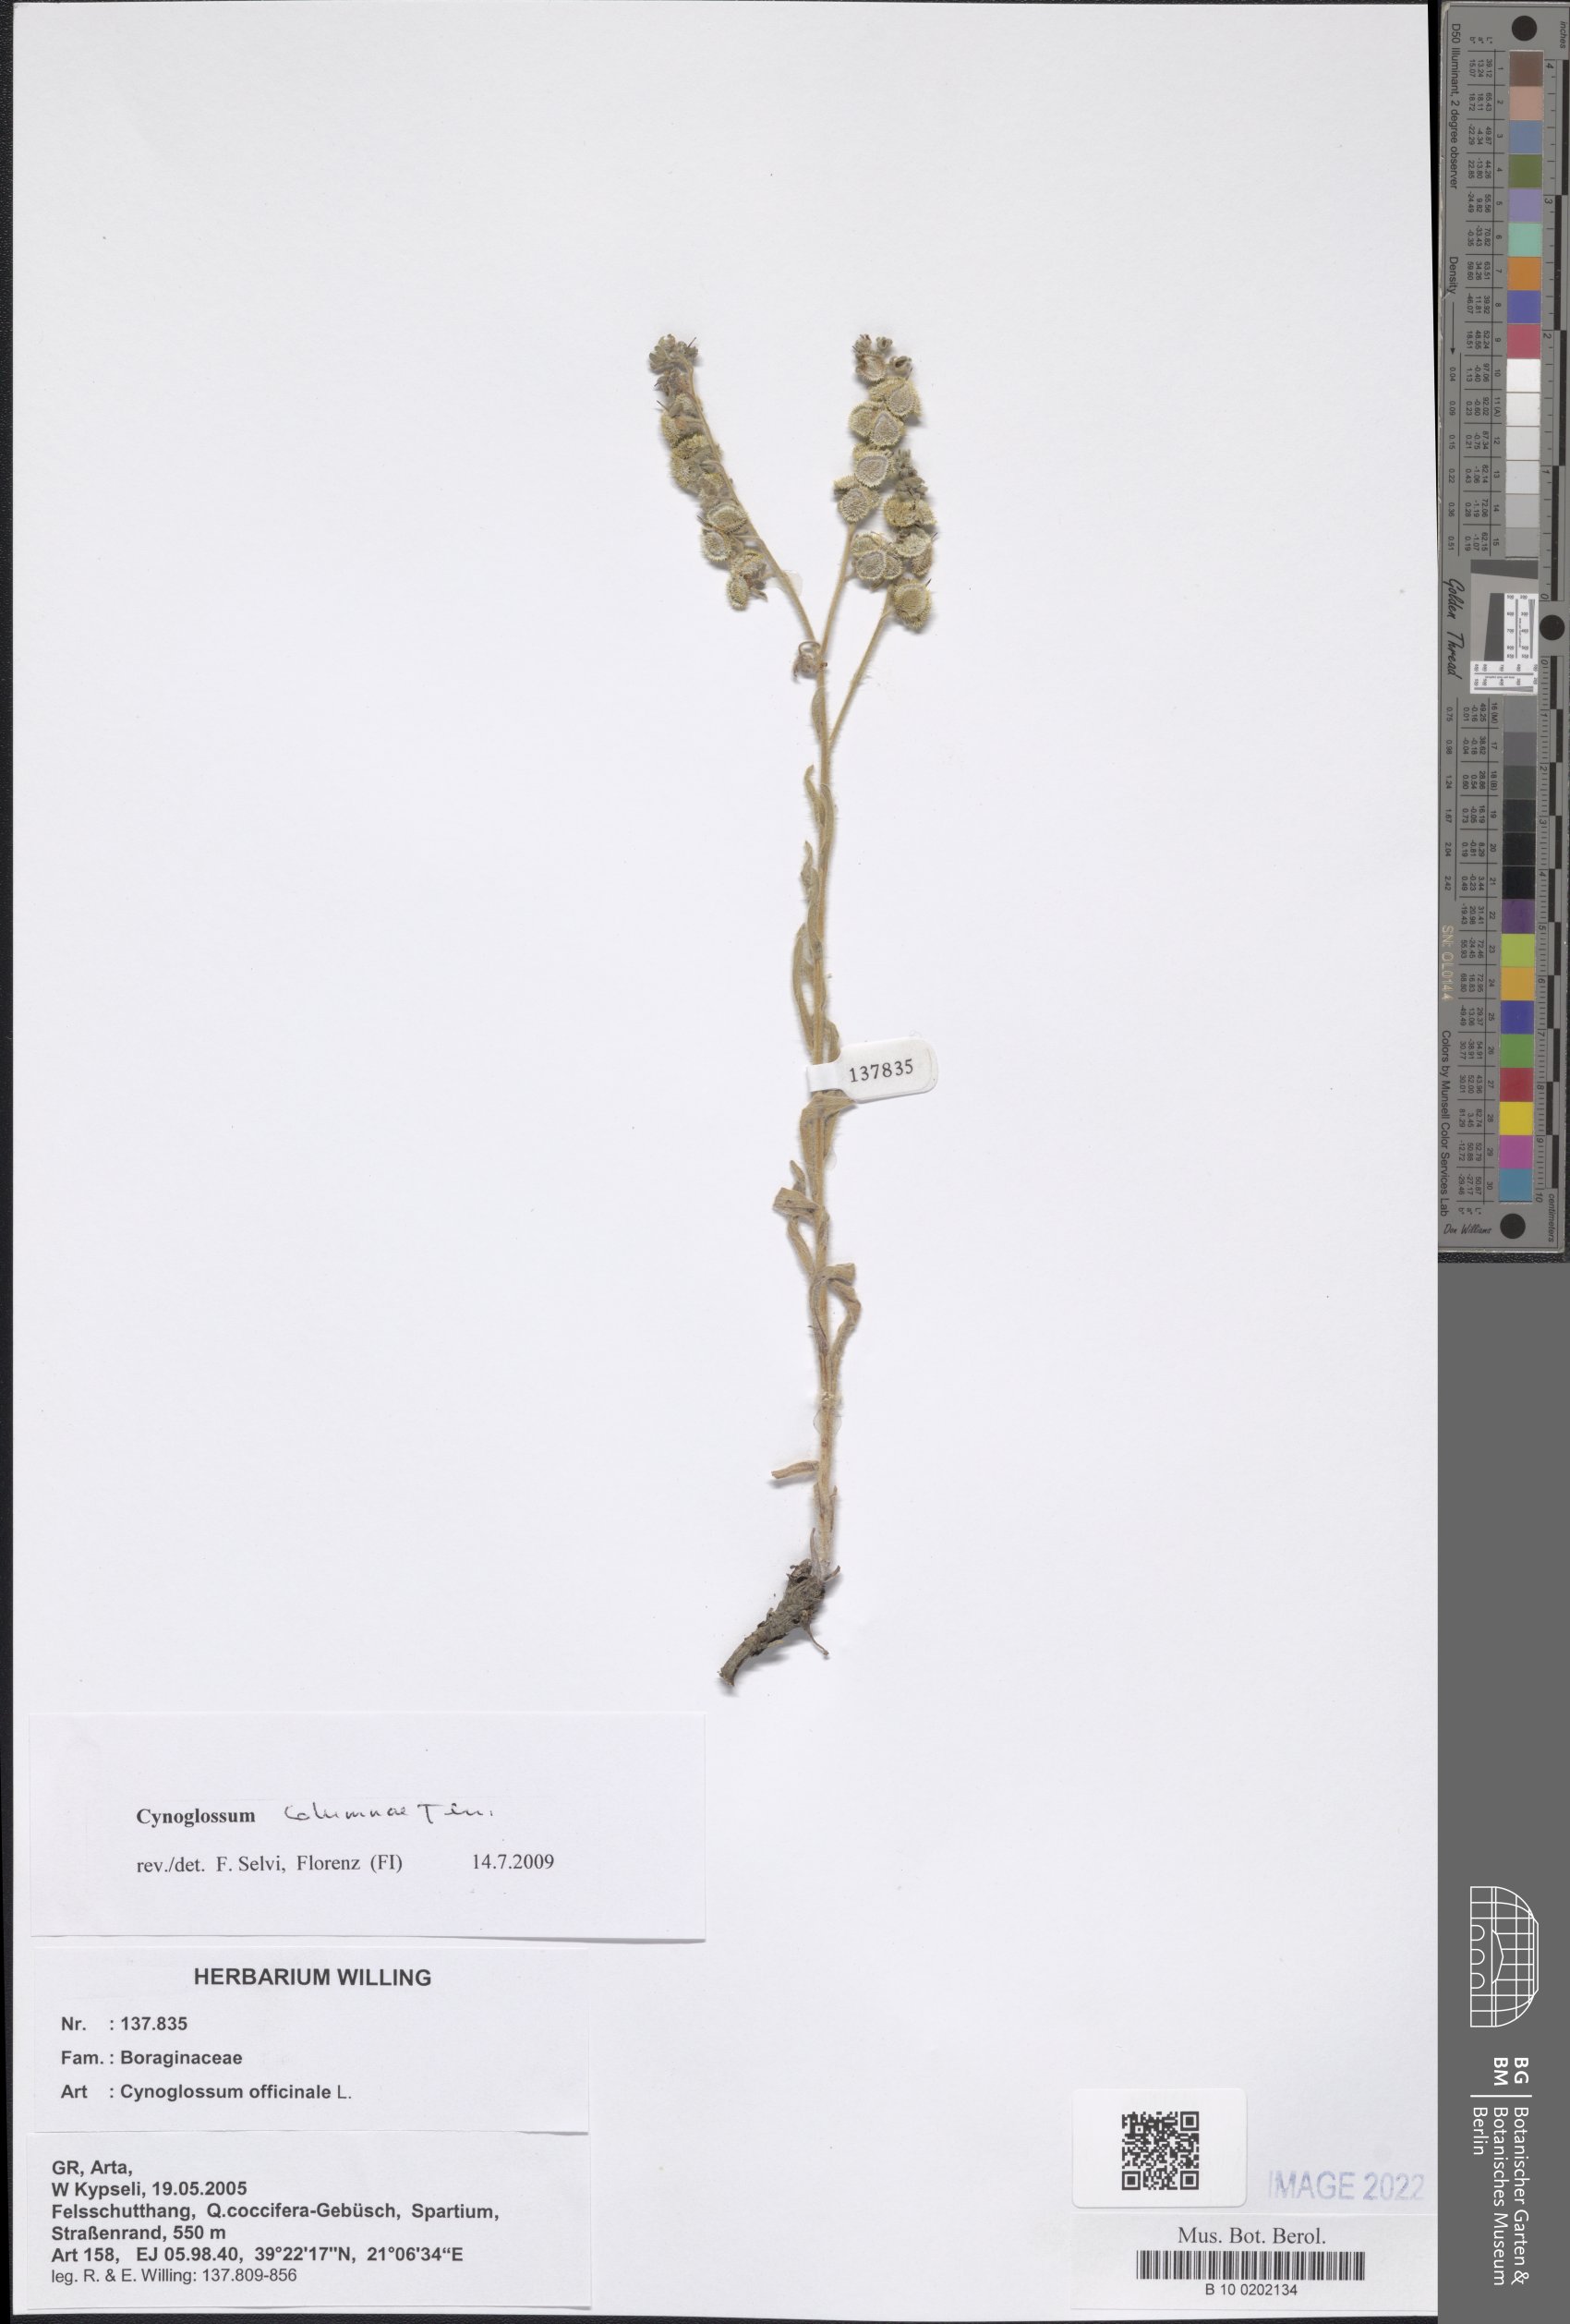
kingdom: Plantae
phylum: Tracheophyta
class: Magnoliopsida
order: Boraginales
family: Boraginaceae
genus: Rindera
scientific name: Rindera columnae
